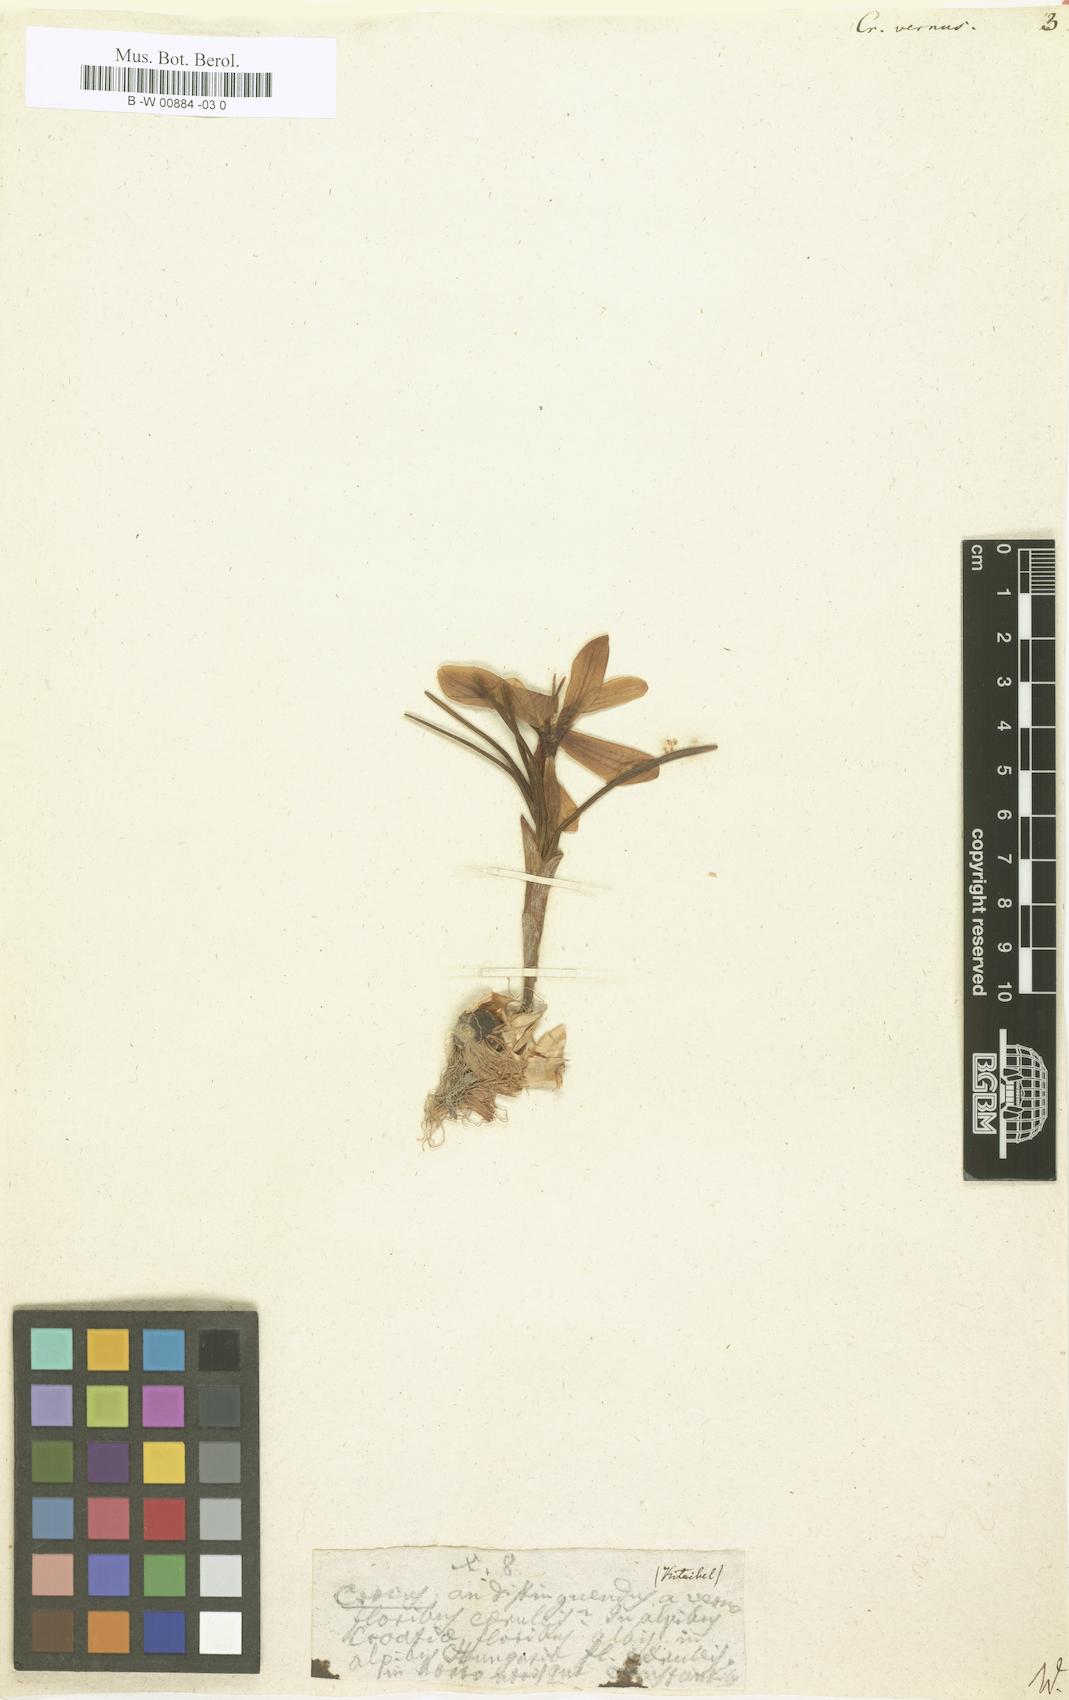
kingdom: Plantae
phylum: Tracheophyta
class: Liliopsida
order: Asparagales
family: Iridaceae
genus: Crocus
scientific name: Crocus vernus
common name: Spring crocus
